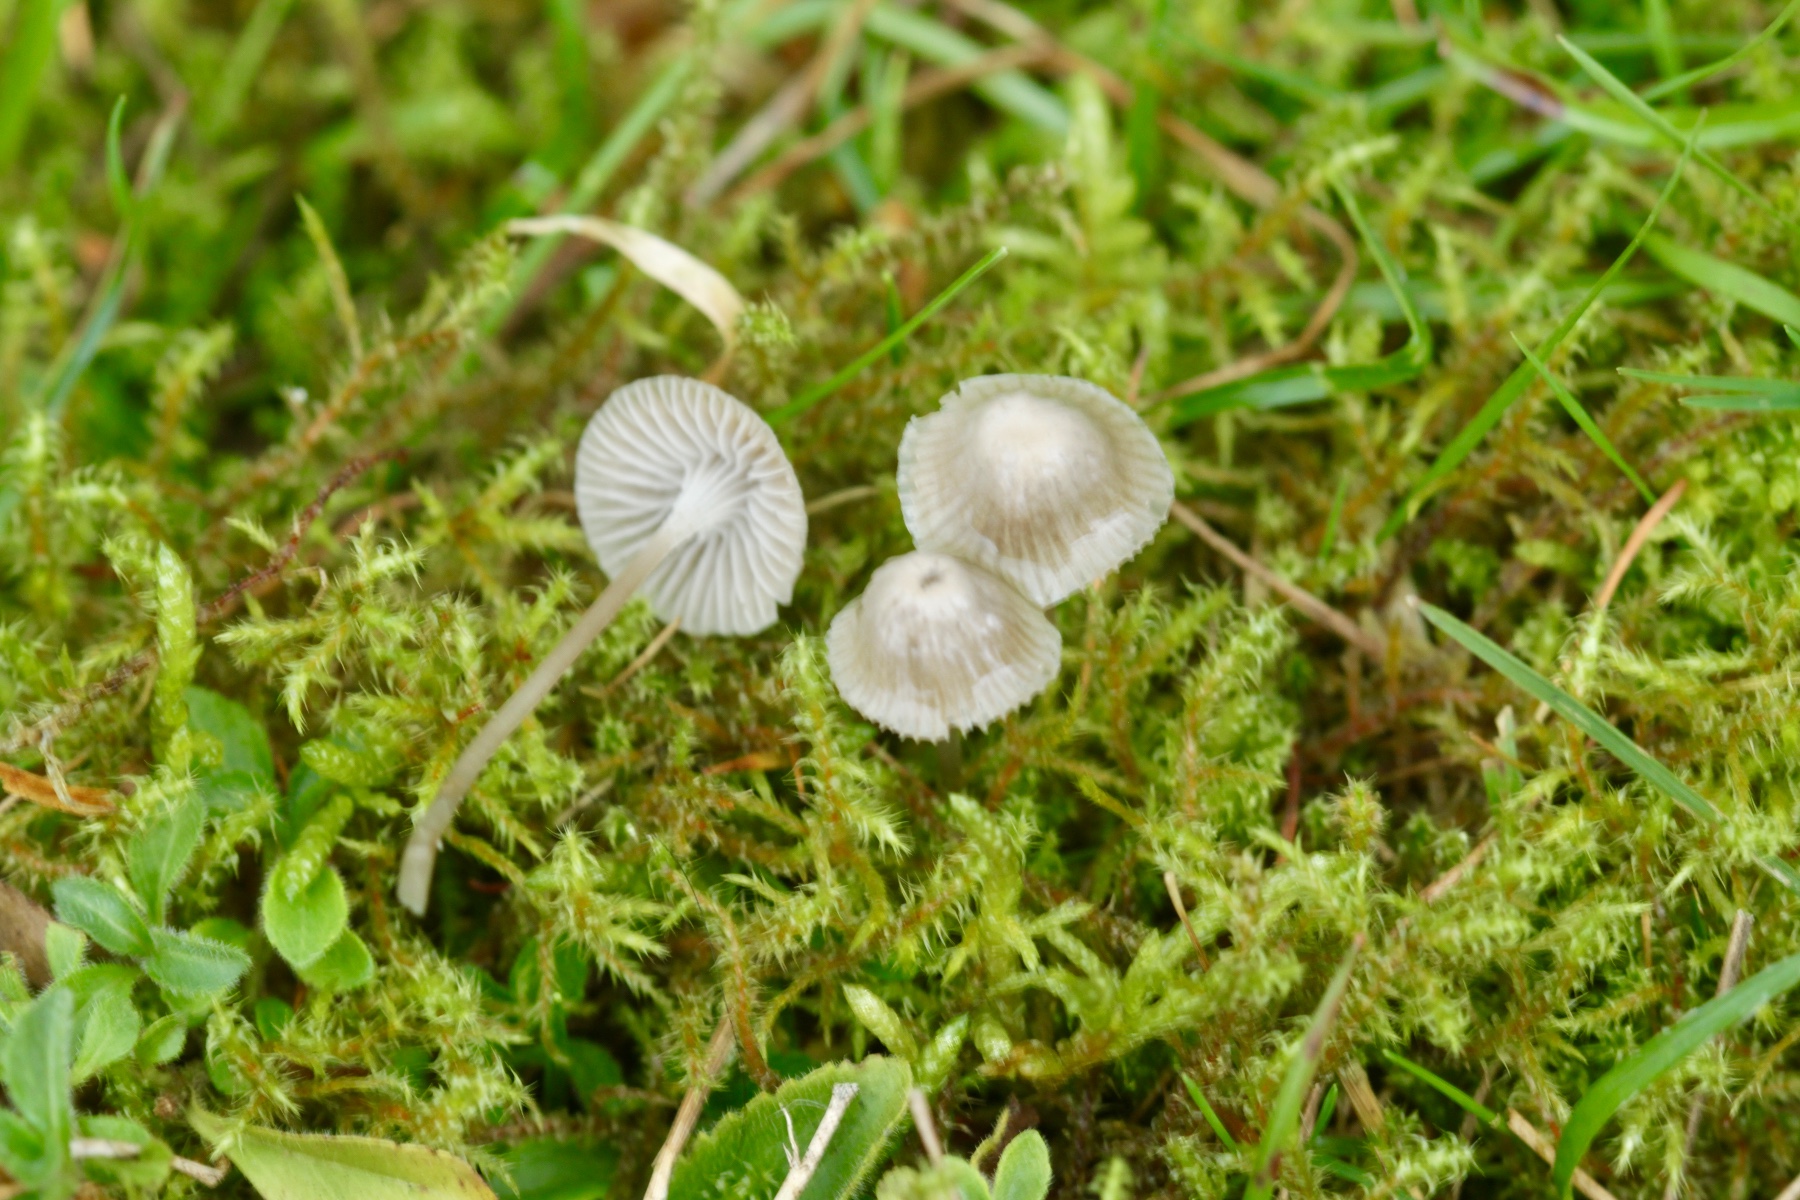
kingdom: Fungi
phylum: Basidiomycota
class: Agaricomycetes
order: Agaricales
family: Mycenaceae
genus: Mycena
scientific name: Mycena cinerella
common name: mel-huesvamp
